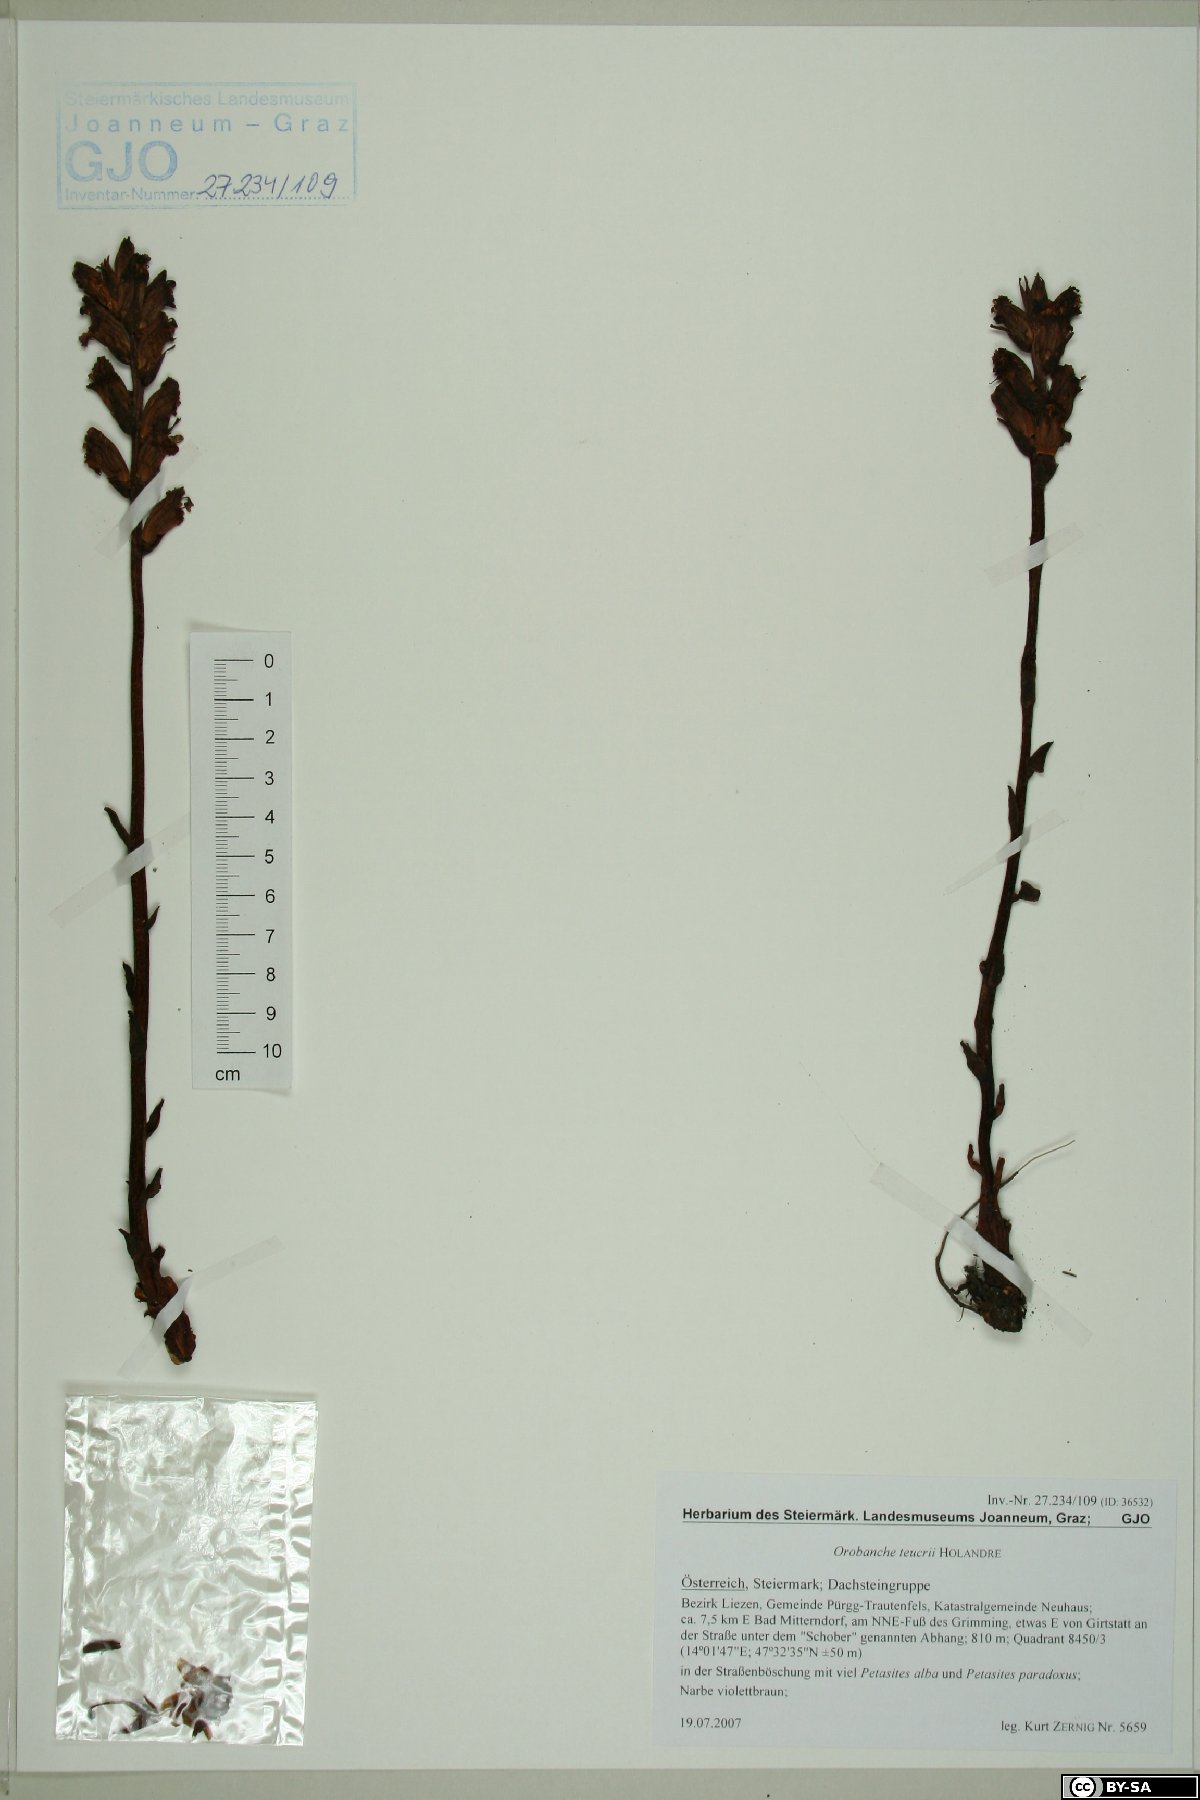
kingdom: Plantae
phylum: Tracheophyta
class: Magnoliopsida
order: Lamiales
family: Orobanchaceae
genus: Orobanche
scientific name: Orobanche teucrii
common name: Germander broomrape
